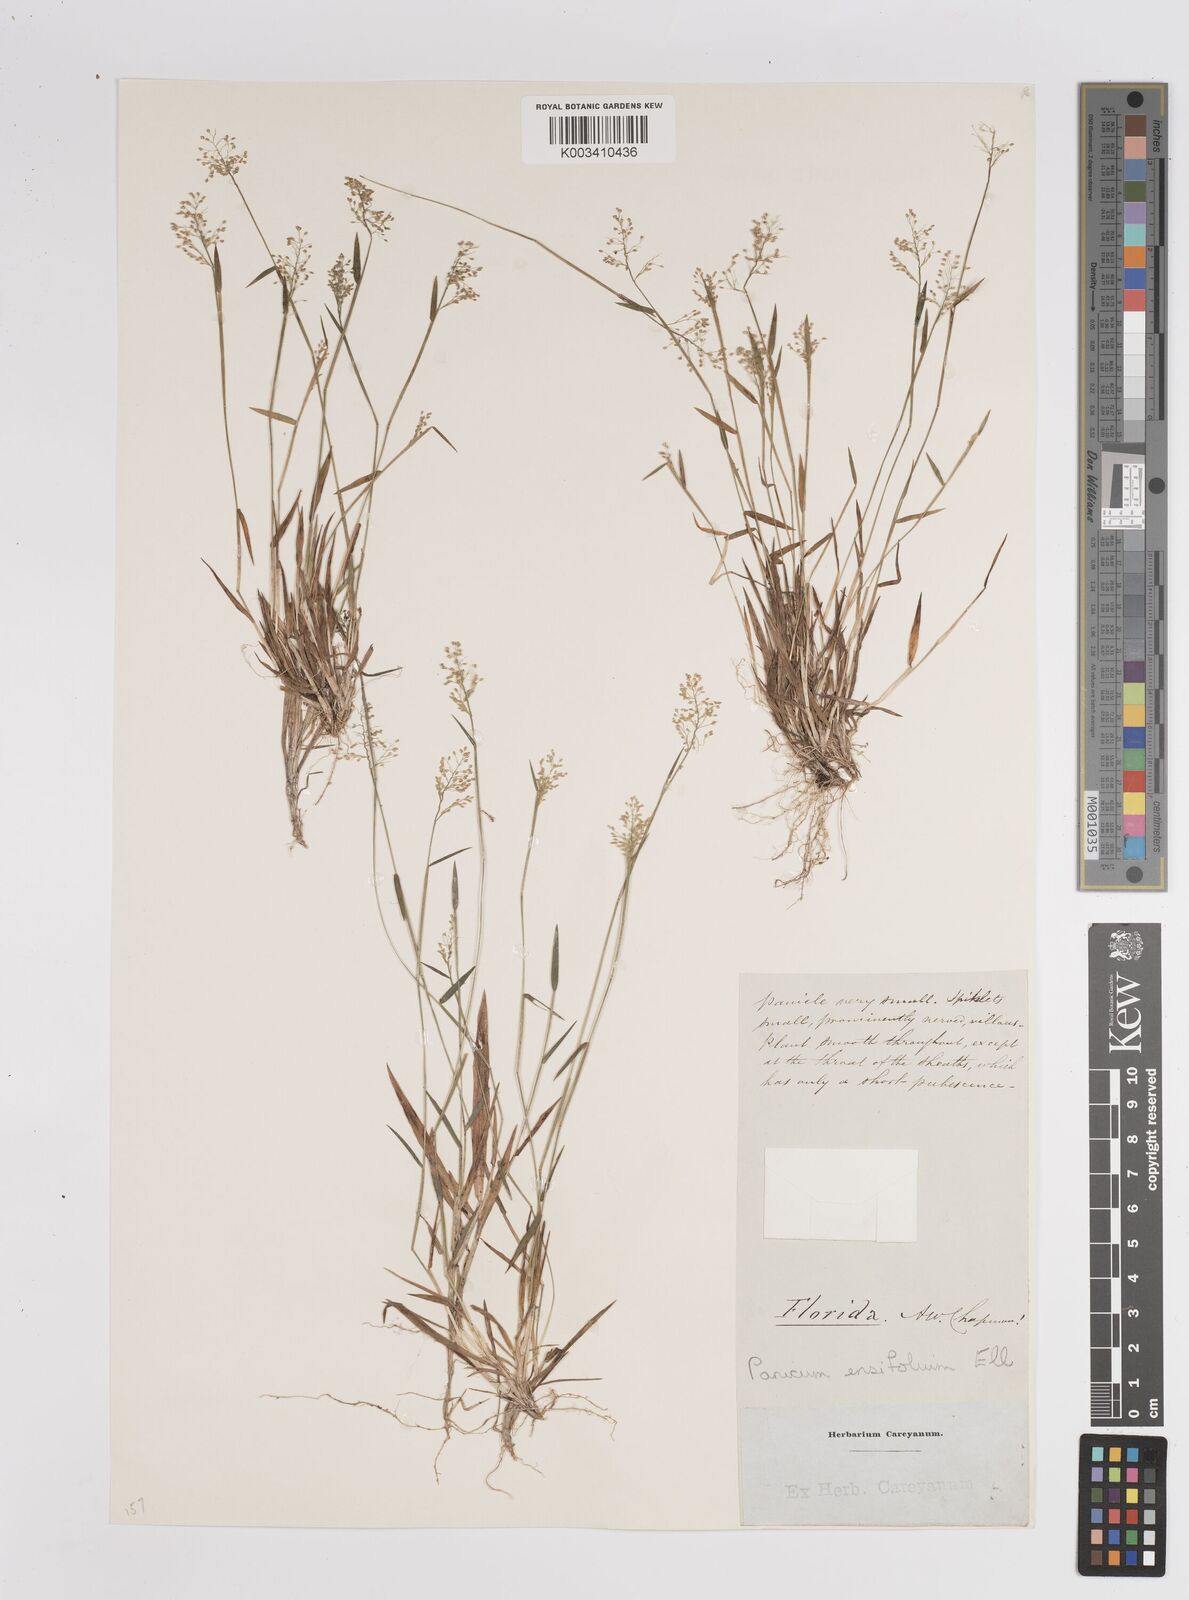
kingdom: Plantae
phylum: Tracheophyta
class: Liliopsida
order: Poales
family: Poaceae
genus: Dichanthelium
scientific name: Dichanthelium ensifolium
